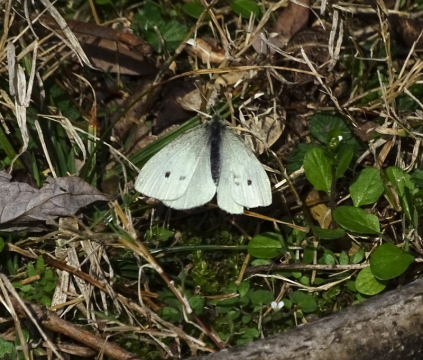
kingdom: Animalia
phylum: Arthropoda
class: Insecta
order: Lepidoptera
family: Pieridae
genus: Pieris
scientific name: Pieris rapae
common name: Cabbage White
